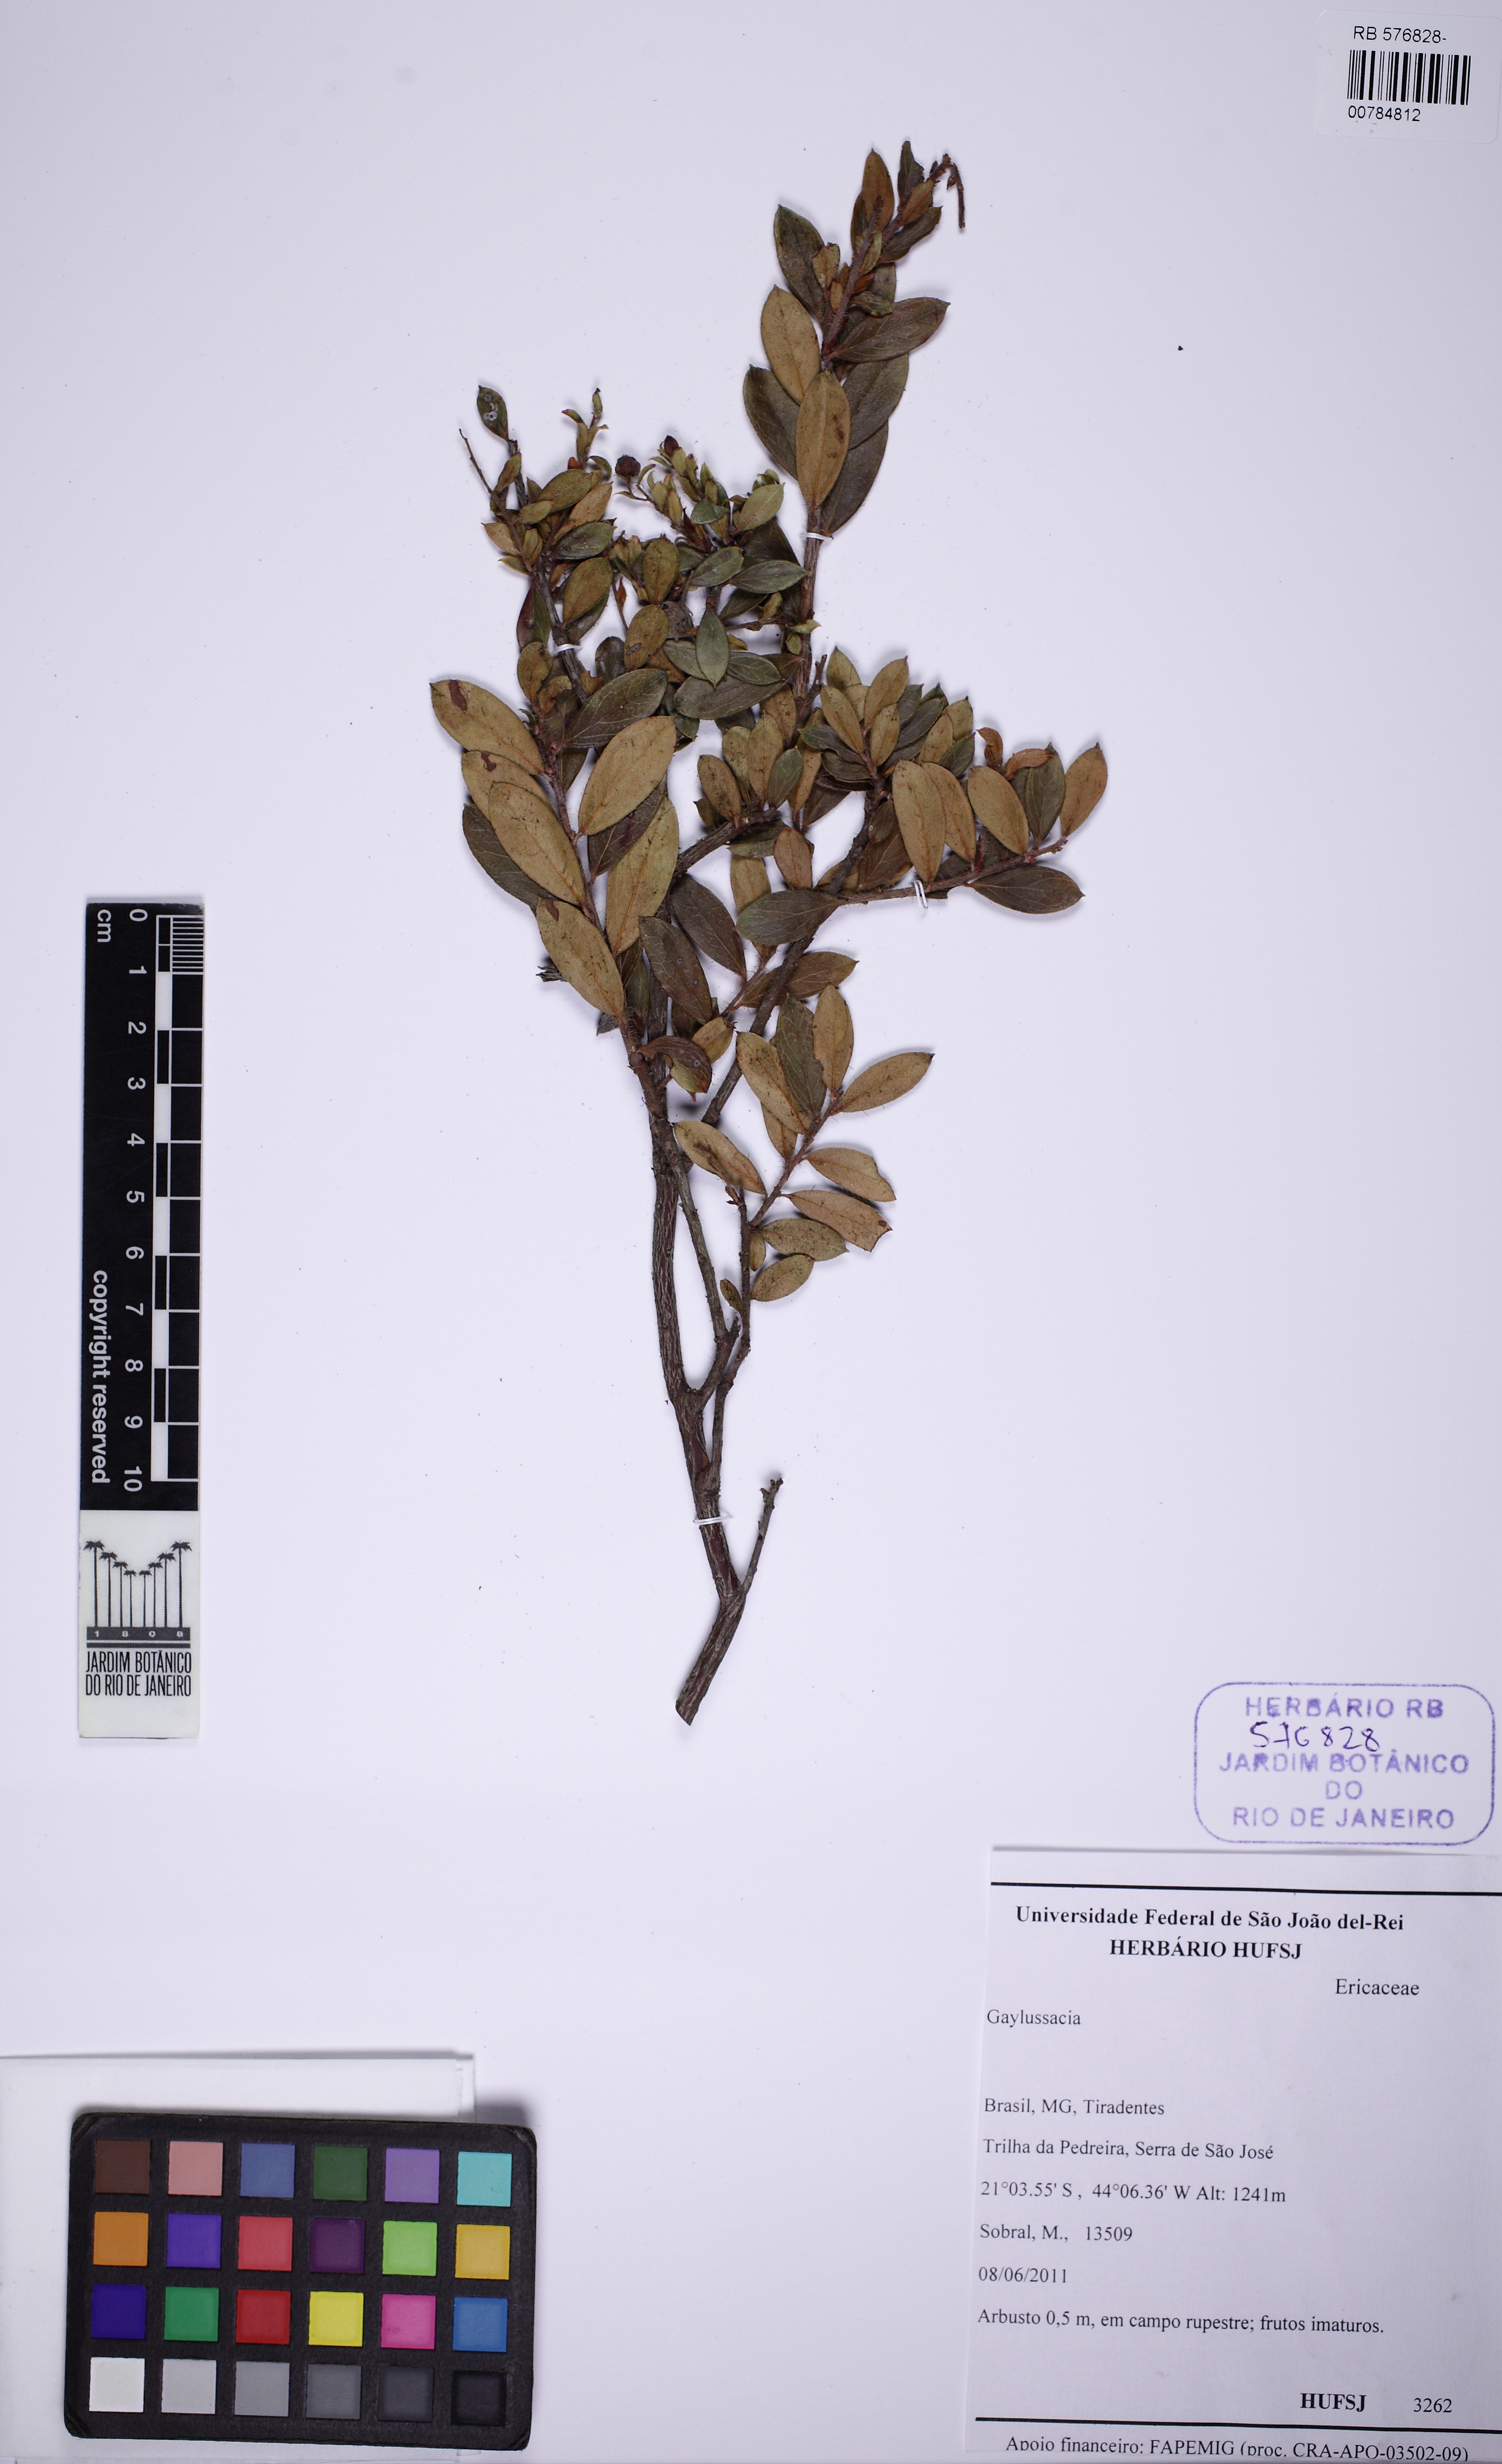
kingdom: Plantae
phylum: Tracheophyta
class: Magnoliopsida
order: Ericales
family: Ericaceae
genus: Gaylussacia
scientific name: Gaylussacia
